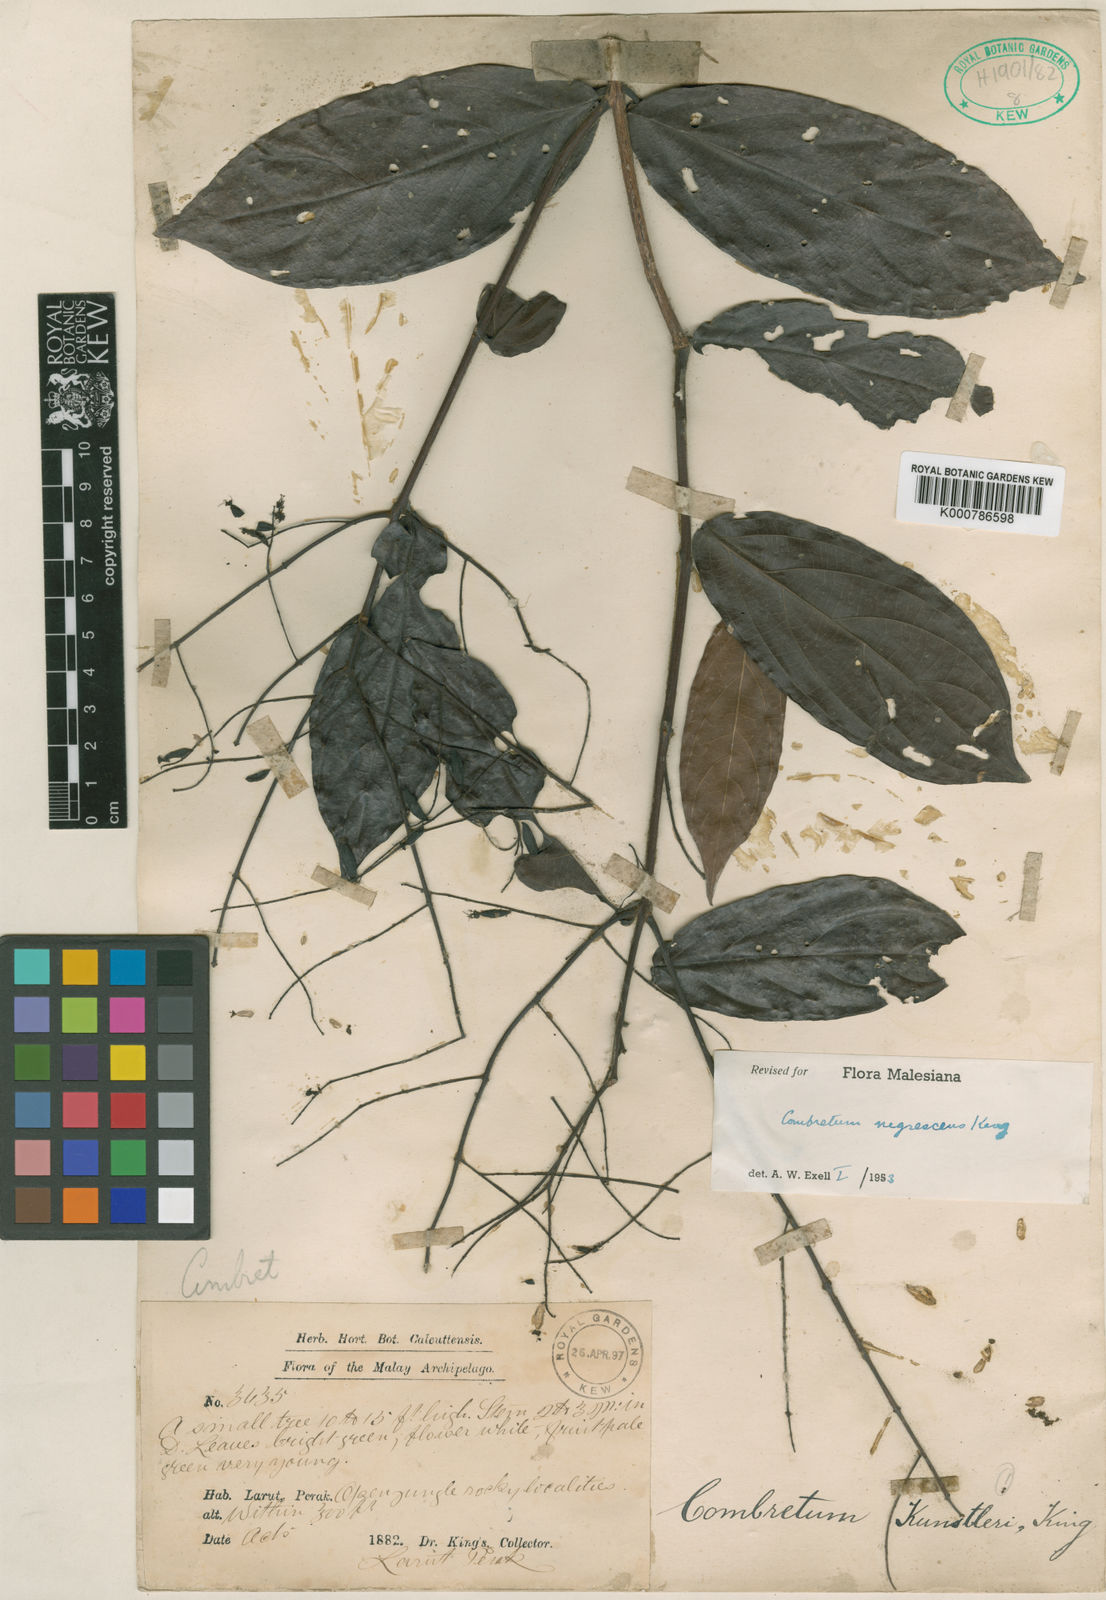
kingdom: Plantae
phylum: Tracheophyta
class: Magnoliopsida
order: Myrtales
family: Combretaceae
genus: Combretum
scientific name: Combretum nigrescens
